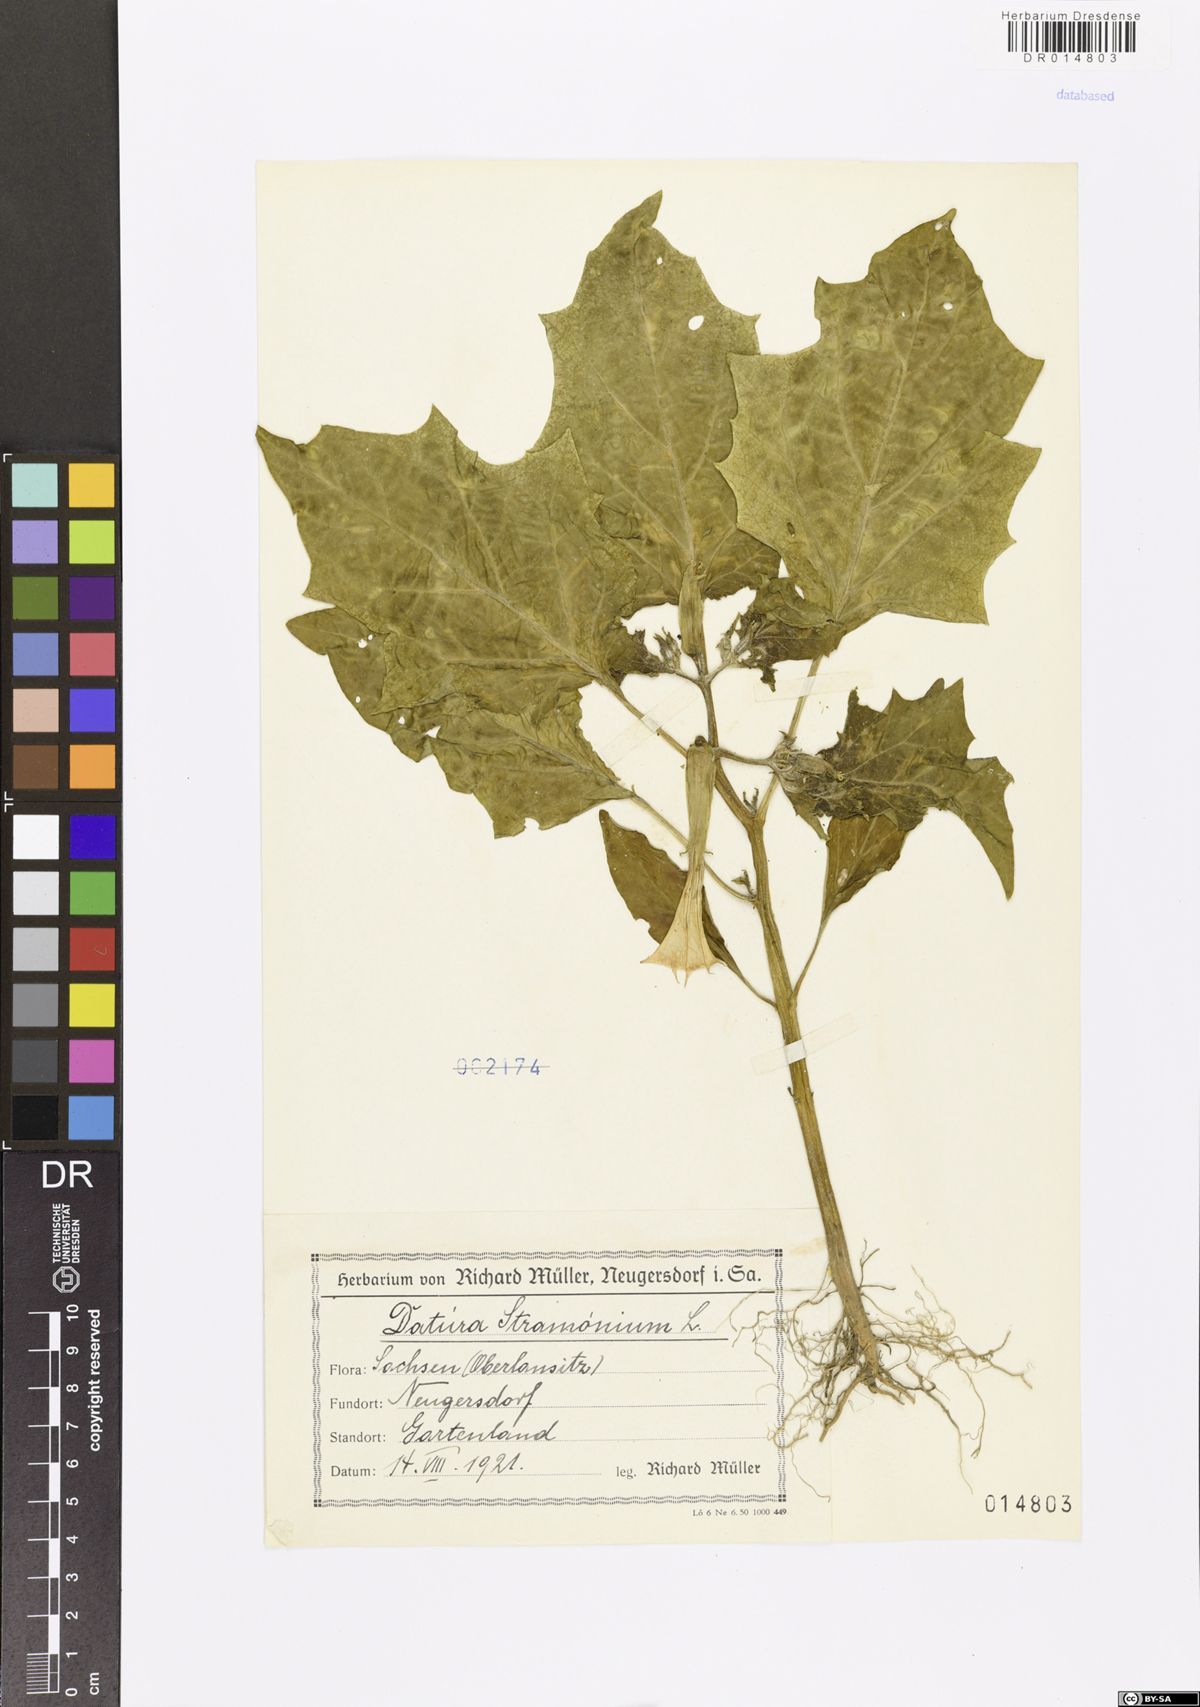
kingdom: Plantae
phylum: Tracheophyta
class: Magnoliopsida
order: Solanales
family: Solanaceae
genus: Datura
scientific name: Datura stramonium
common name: Thorn-apple
